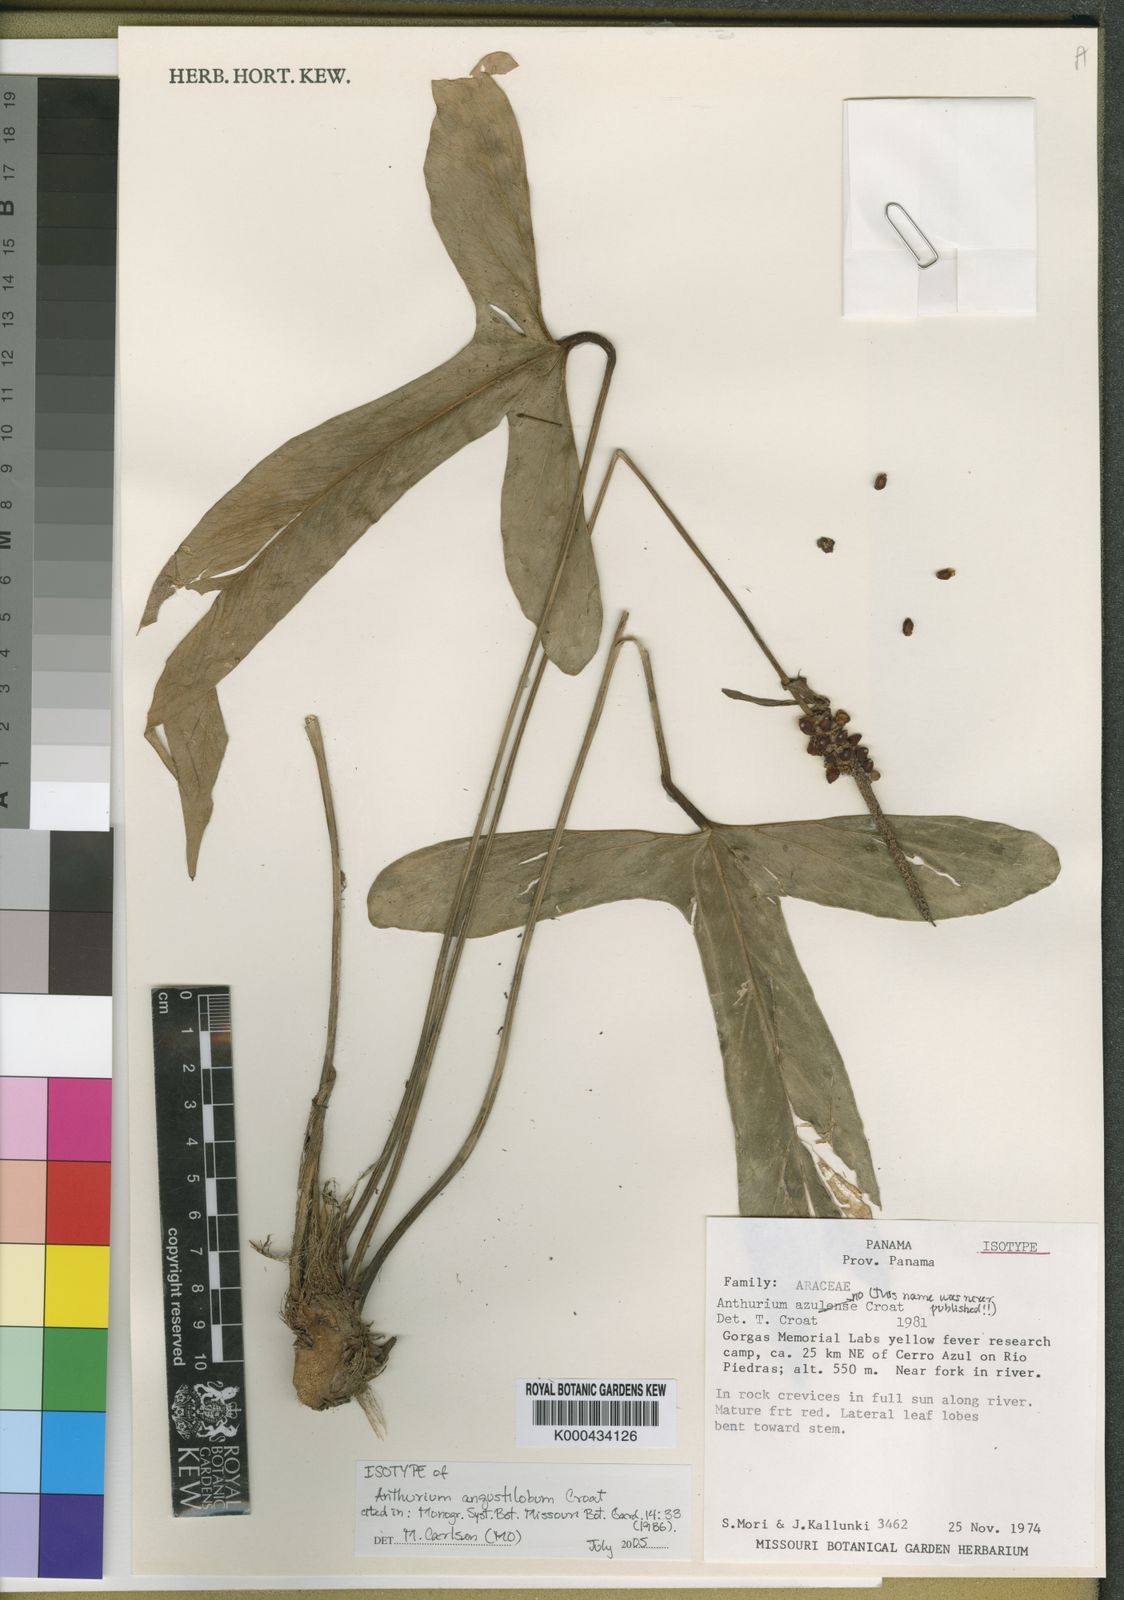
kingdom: Plantae
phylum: Tracheophyta
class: Liliopsida
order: Alismatales
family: Araceae
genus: Anthurium
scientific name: Anthurium angustilobum
